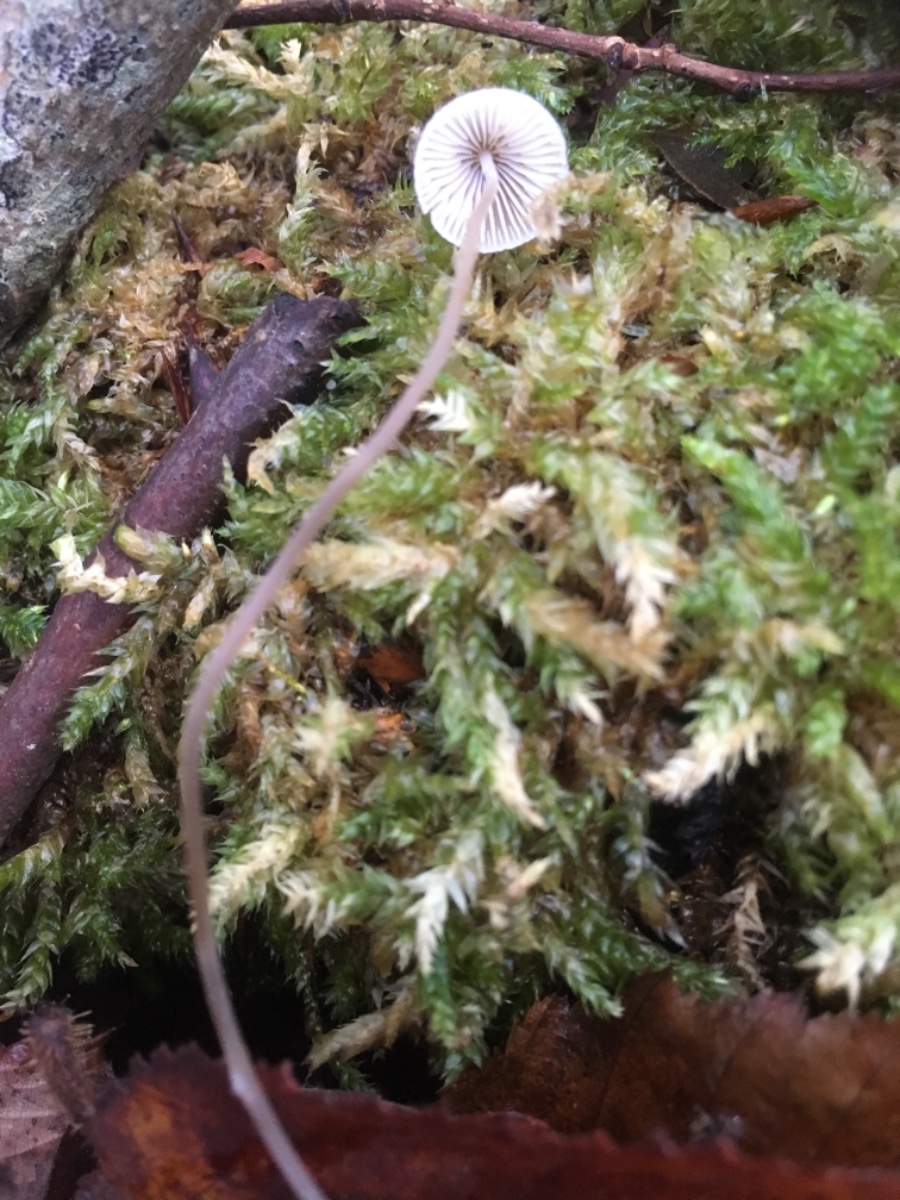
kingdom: Fungi
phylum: Basidiomycota
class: Agaricomycetes
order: Agaricales
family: Mycenaceae
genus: Mycena
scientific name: Mycena
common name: huesvamp
